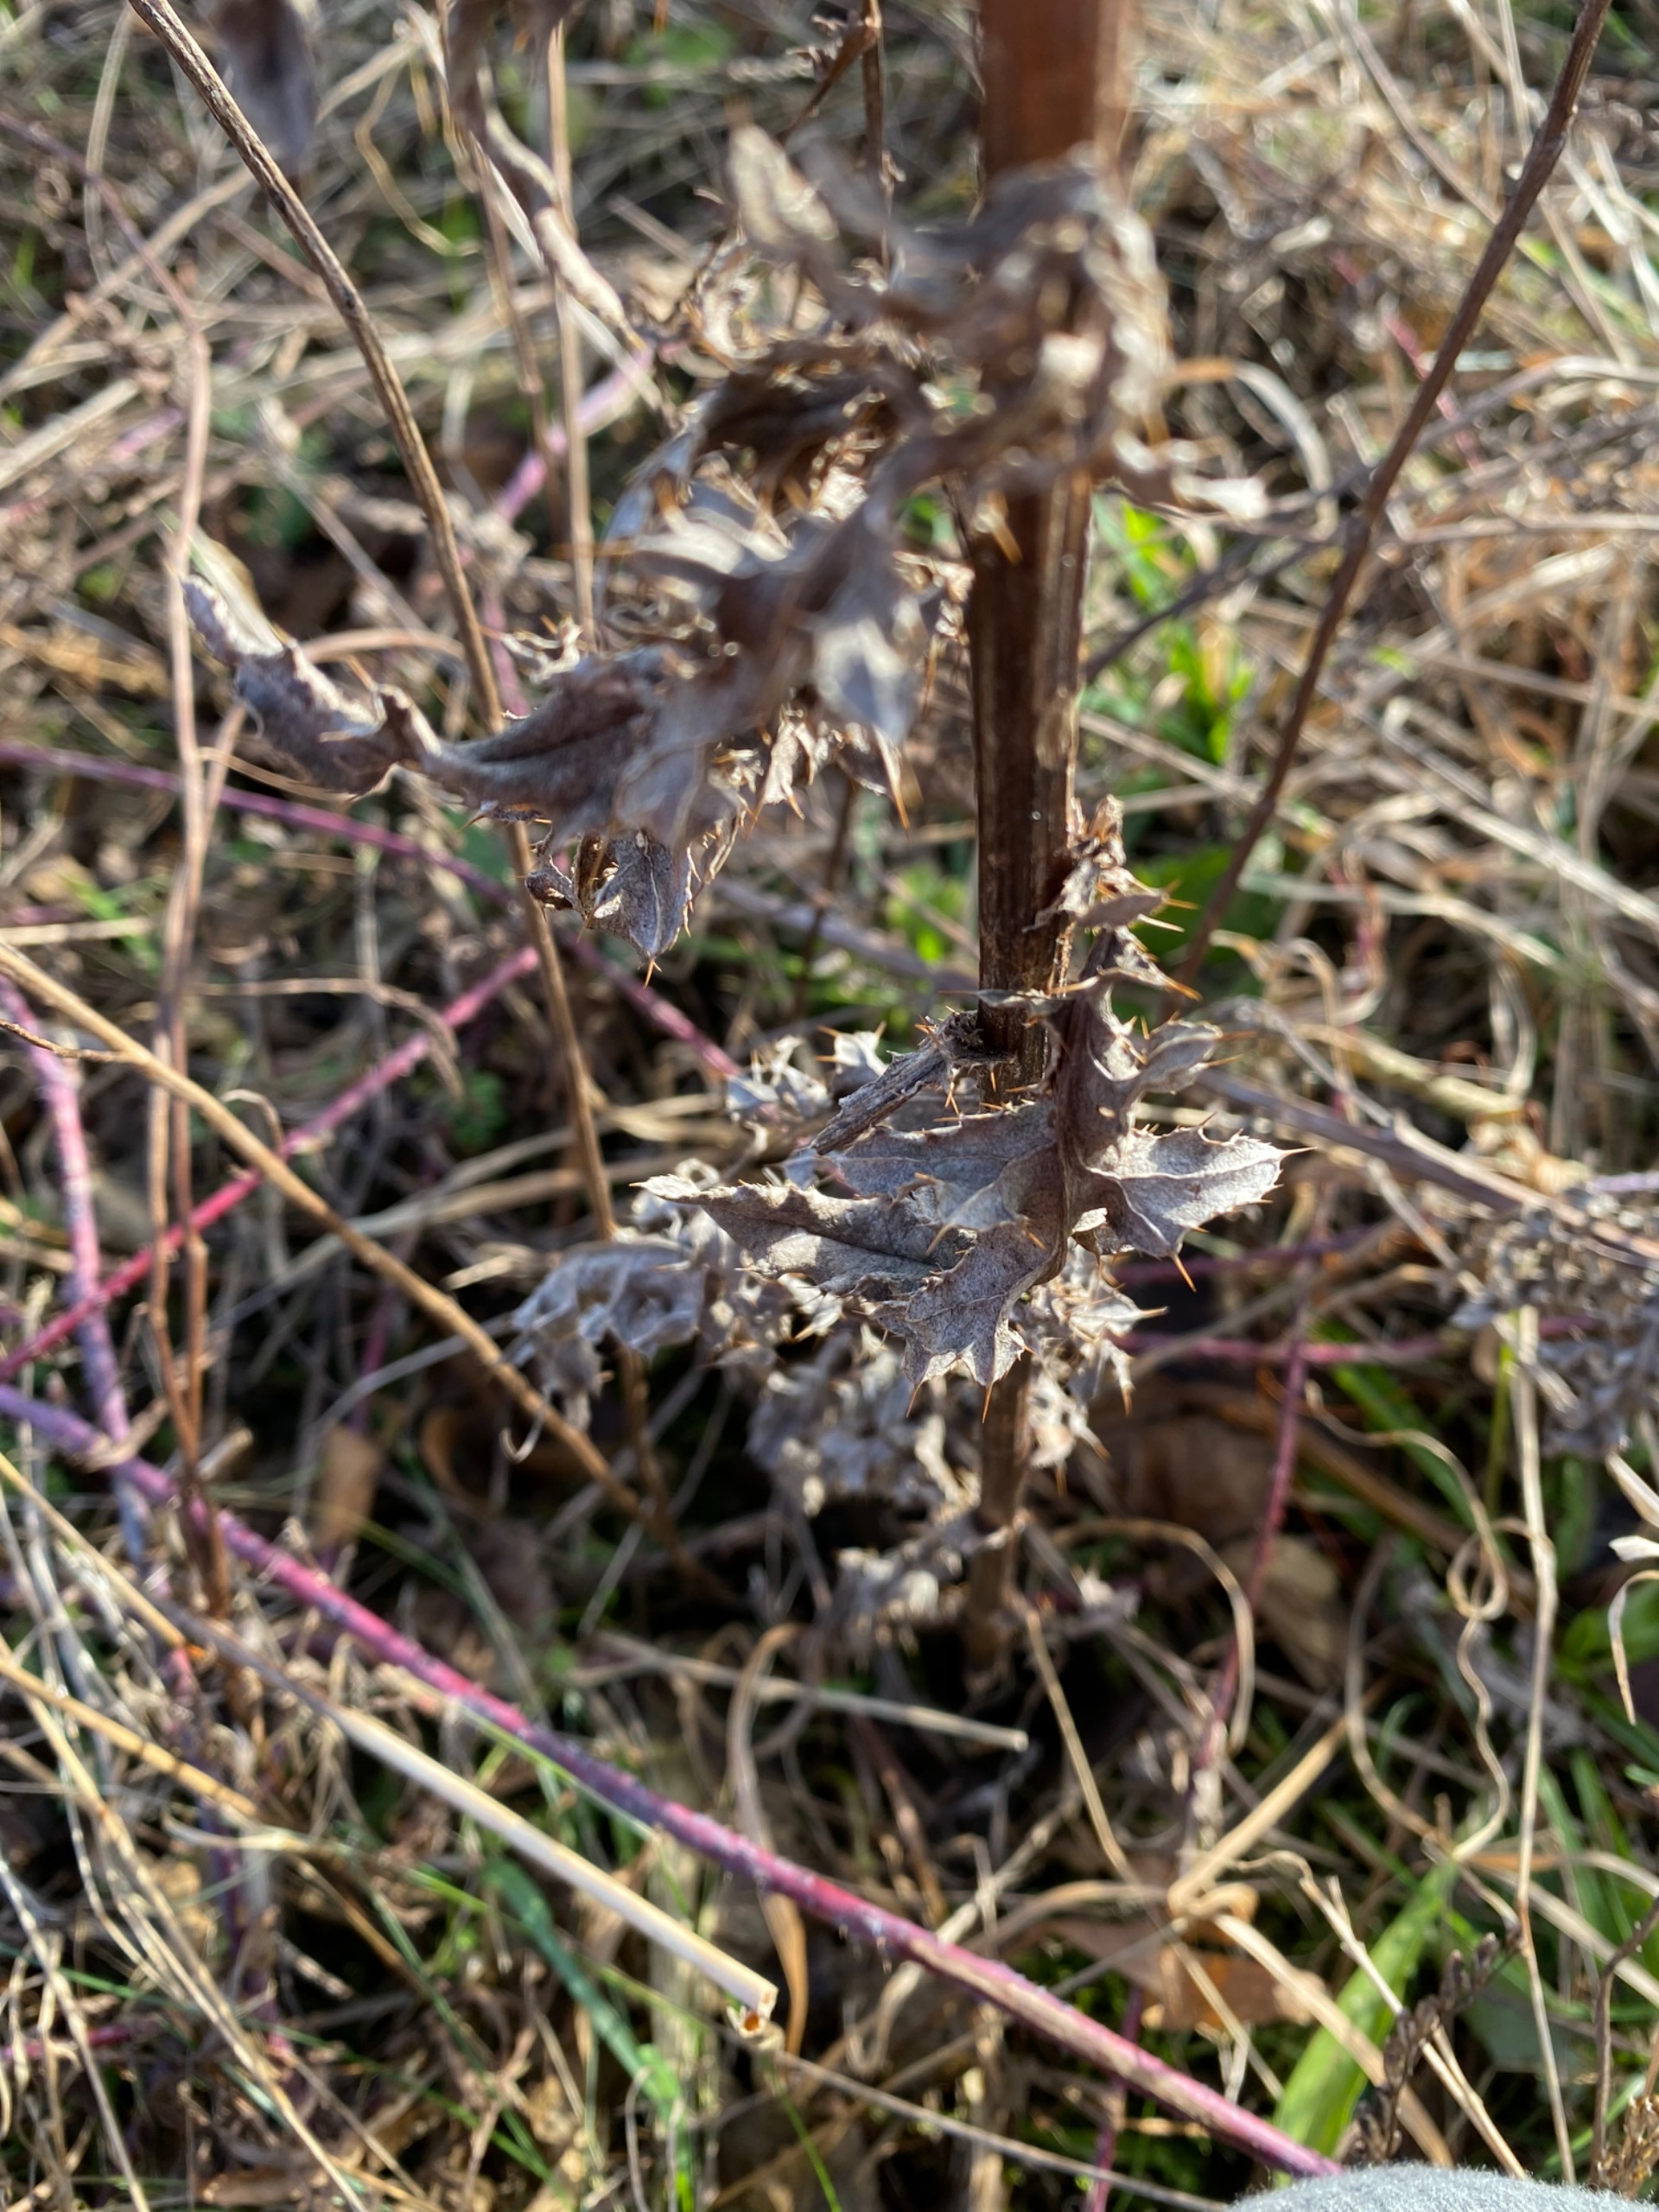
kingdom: Plantae
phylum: Tracheophyta
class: Magnoliopsida
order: Asterales
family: Asteraceae
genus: Cirsium
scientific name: Cirsium arvense
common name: Ager-tidsel
